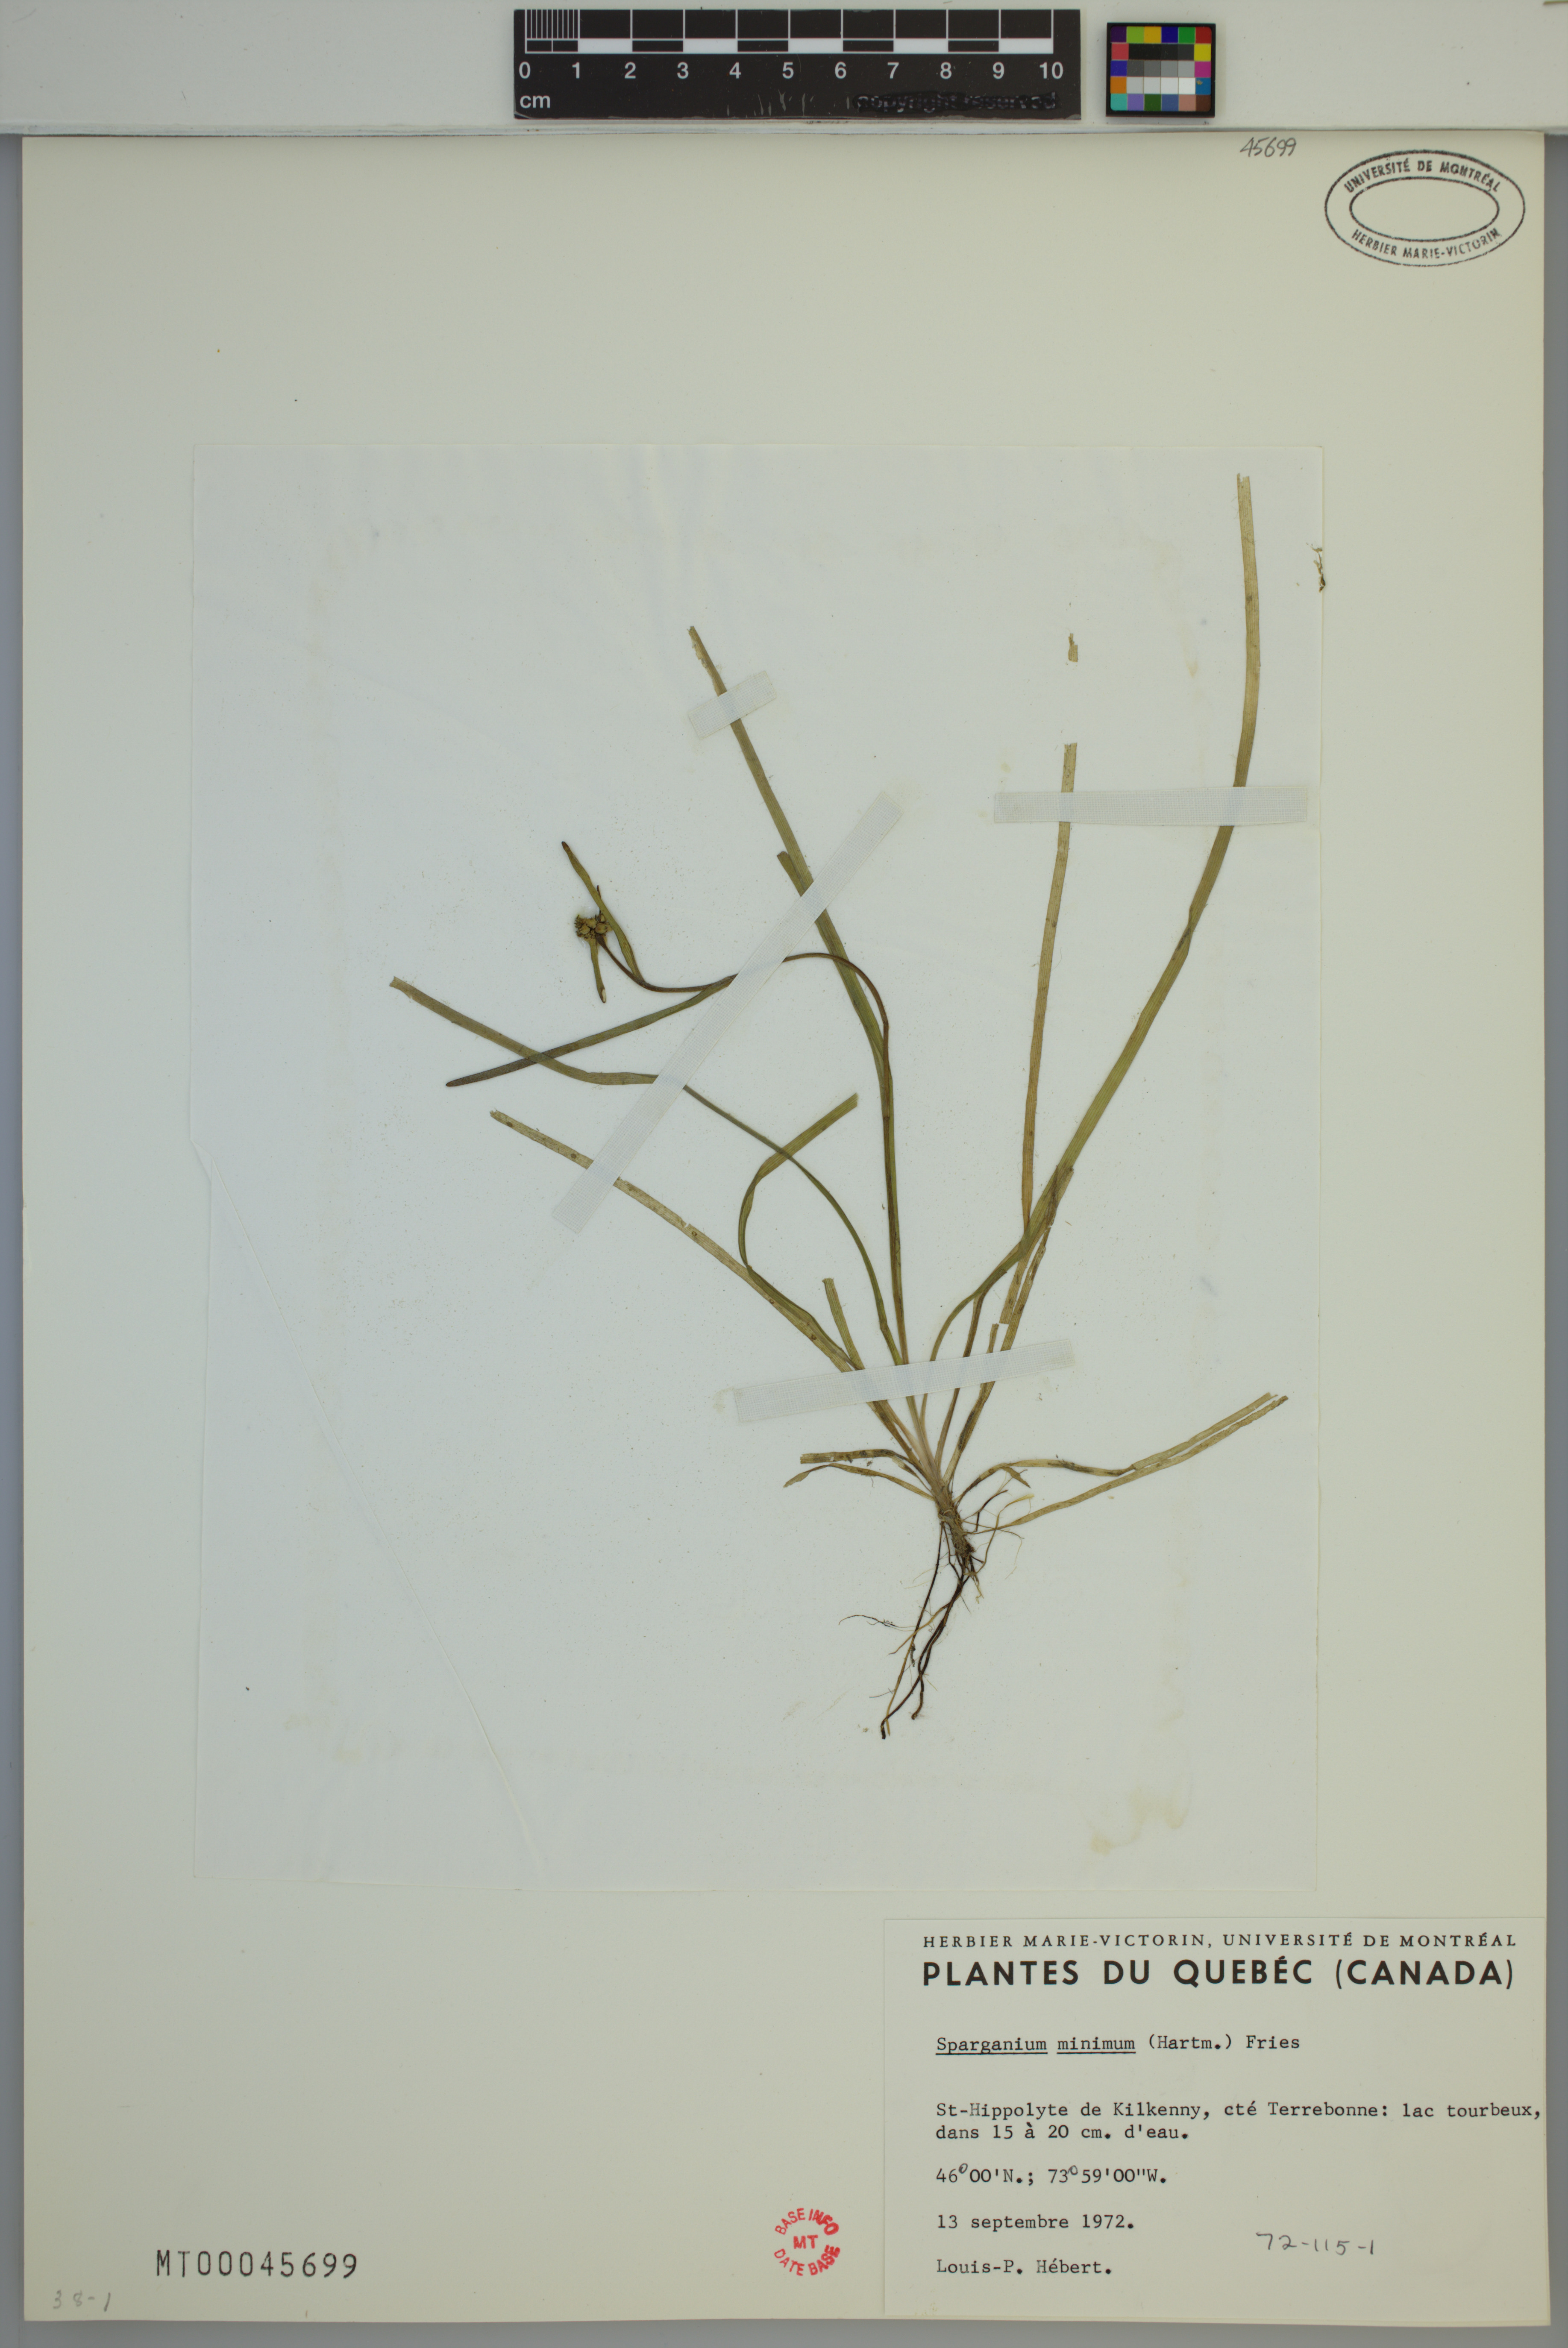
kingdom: Plantae
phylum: Tracheophyta
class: Liliopsida
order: Poales
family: Typhaceae
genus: Sparganium
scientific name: Sparganium natans
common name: Least bur-reed
